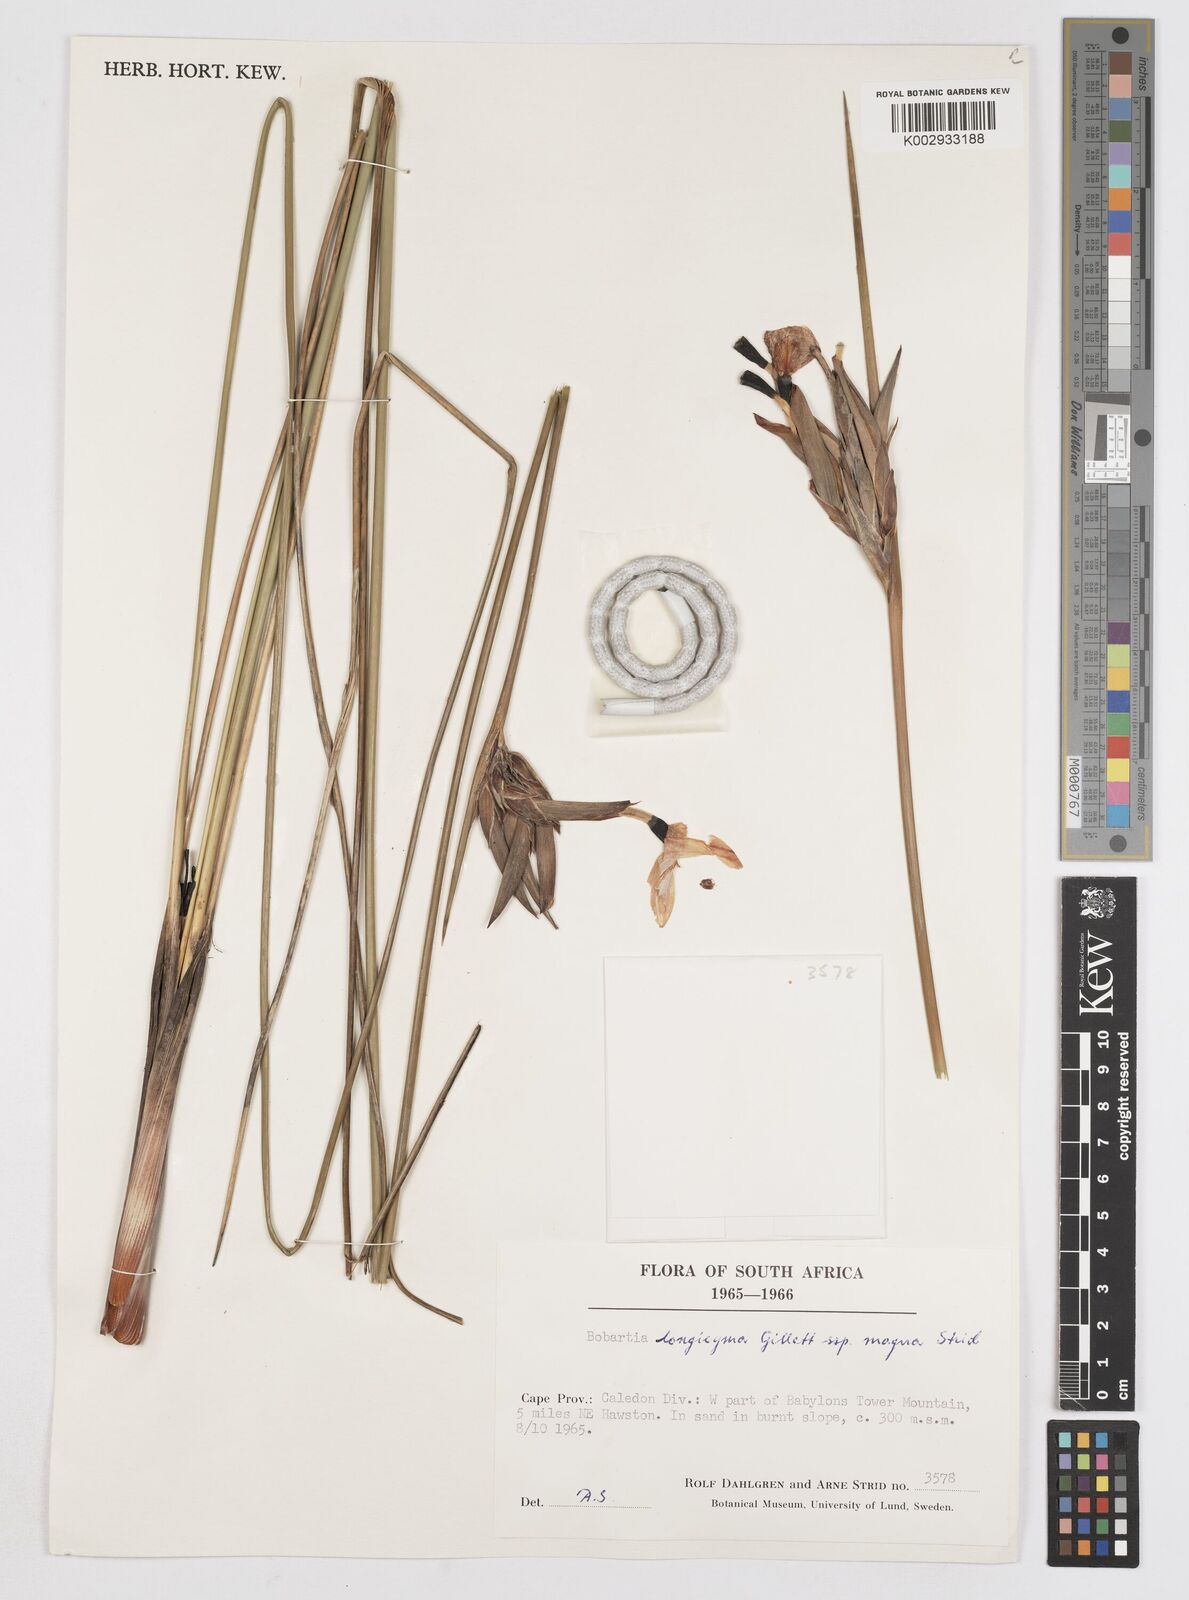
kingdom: Plantae
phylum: Tracheophyta
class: Liliopsida
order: Asparagales
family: Iridaceae
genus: Bobartia
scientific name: Bobartia longicyma
